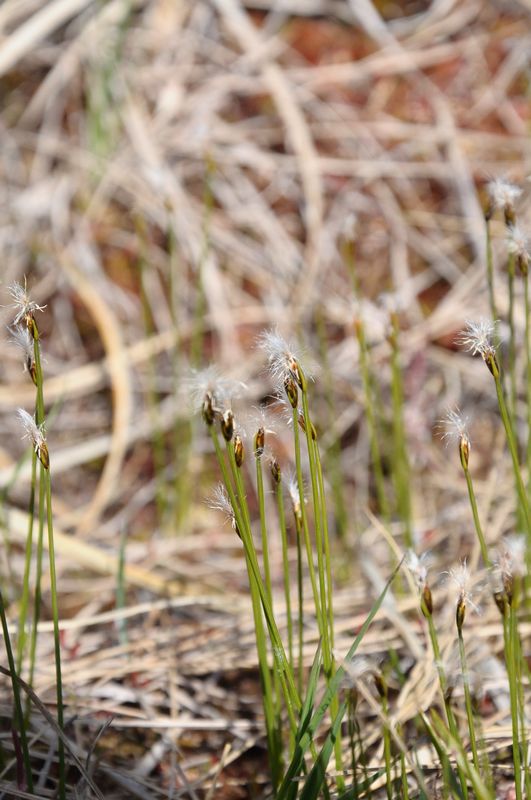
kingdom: Plantae
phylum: Tracheophyta
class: Liliopsida
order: Poales
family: Cyperaceae
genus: Trichophorum
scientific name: Trichophorum alpinum
